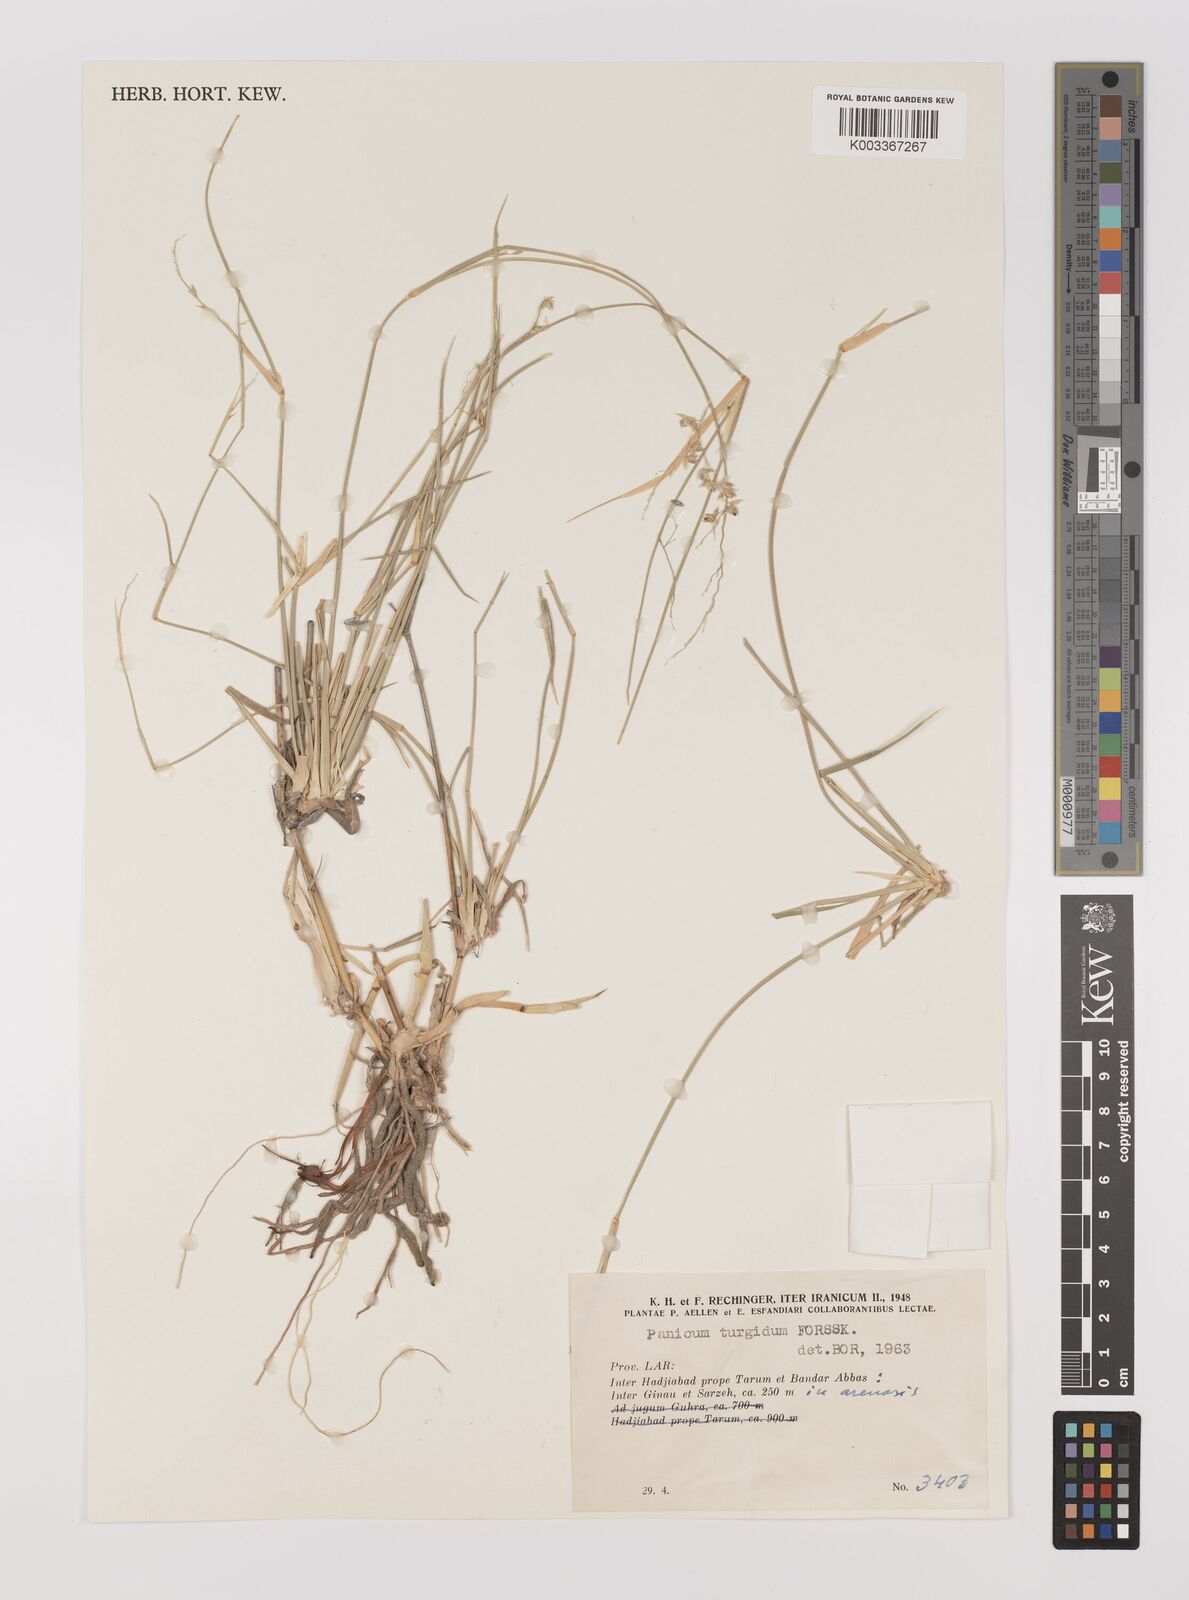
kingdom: Plantae
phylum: Tracheophyta
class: Liliopsida
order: Poales
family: Poaceae
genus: Panicum
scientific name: Panicum turgidum
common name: Desert grass
